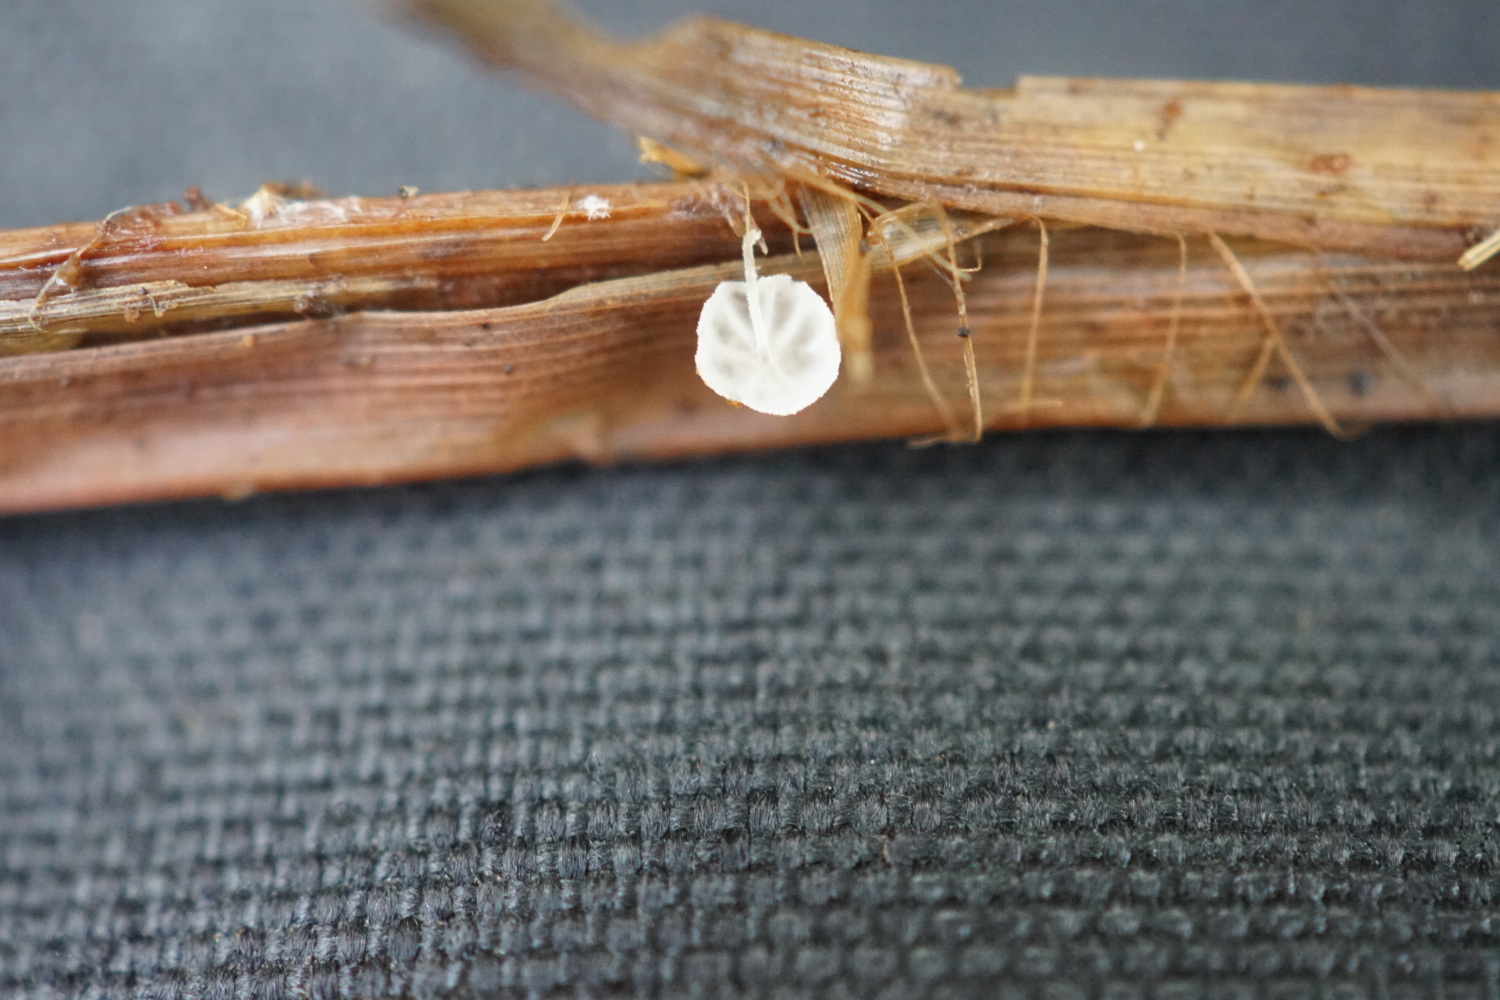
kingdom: Fungi
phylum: Basidiomycota
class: Agaricomycetes
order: Agaricales
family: Mycenaceae
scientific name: Mycenaceae
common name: huesvampfamilien
